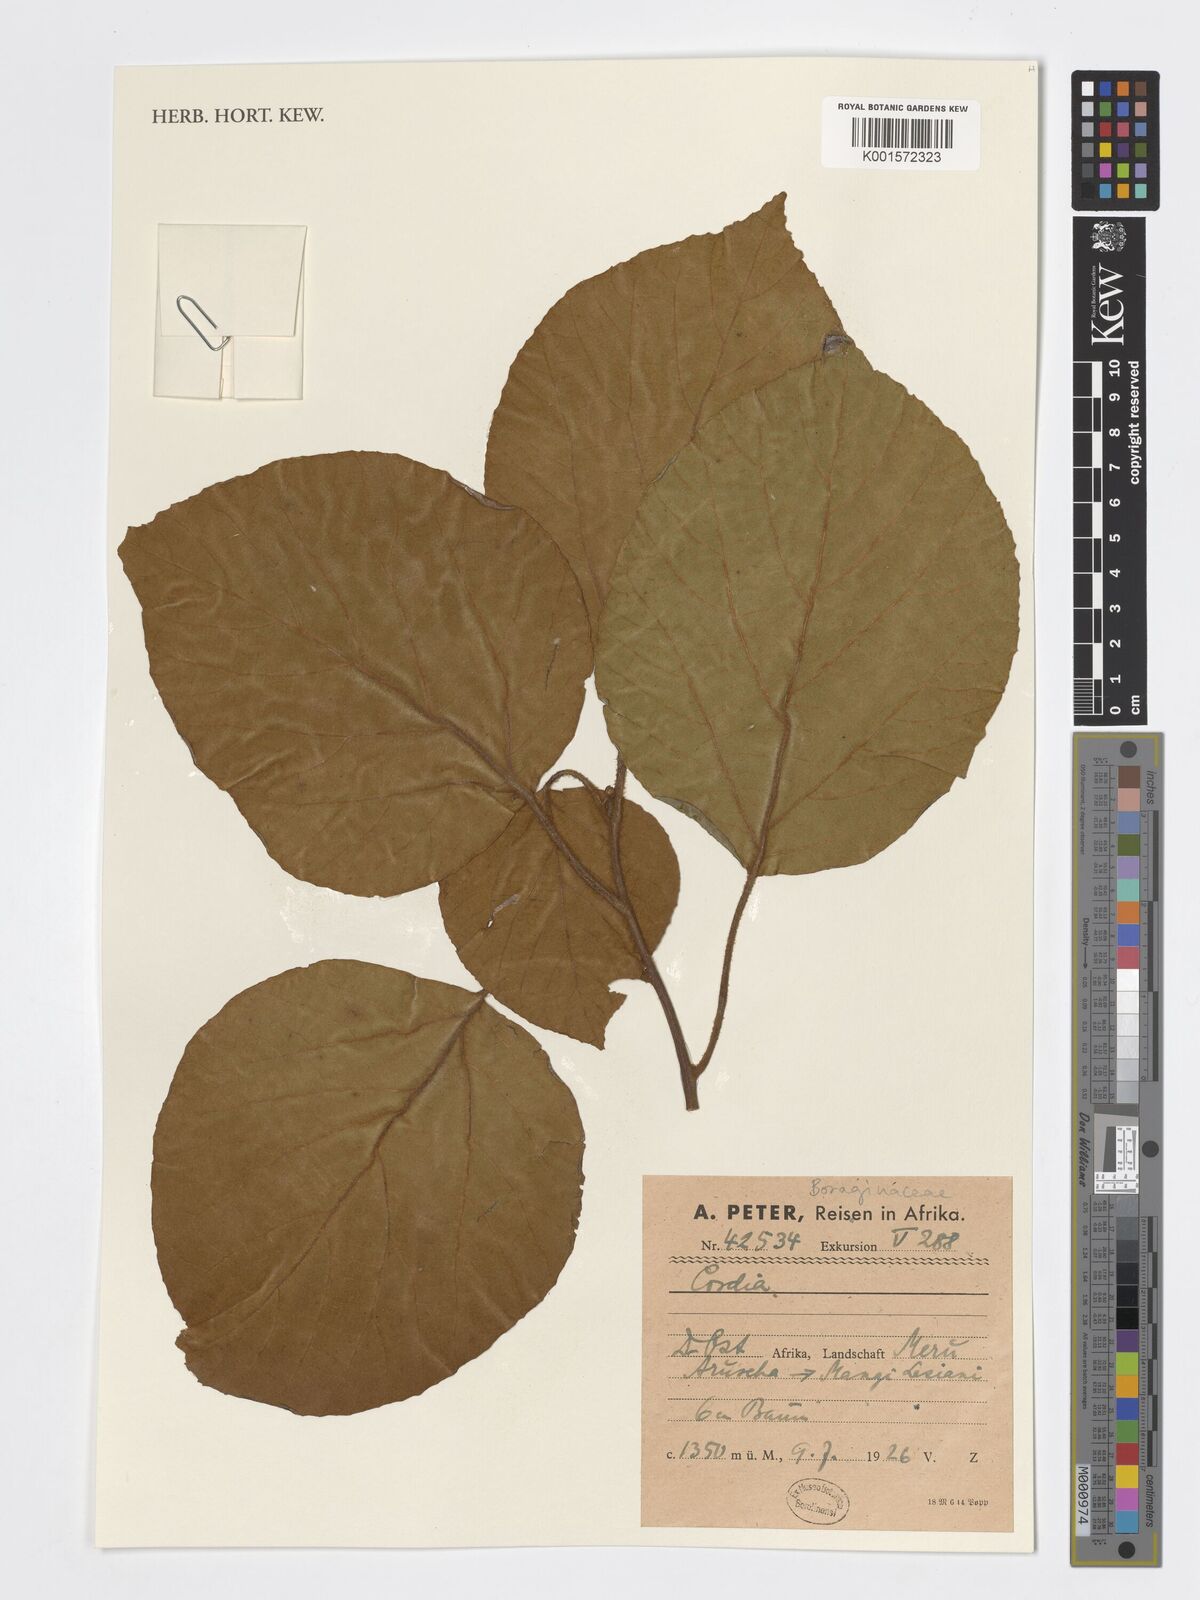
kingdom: Plantae
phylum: Tracheophyta
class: Magnoliopsida
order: Boraginales
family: Cordiaceae
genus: Cordia
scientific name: Cordia
